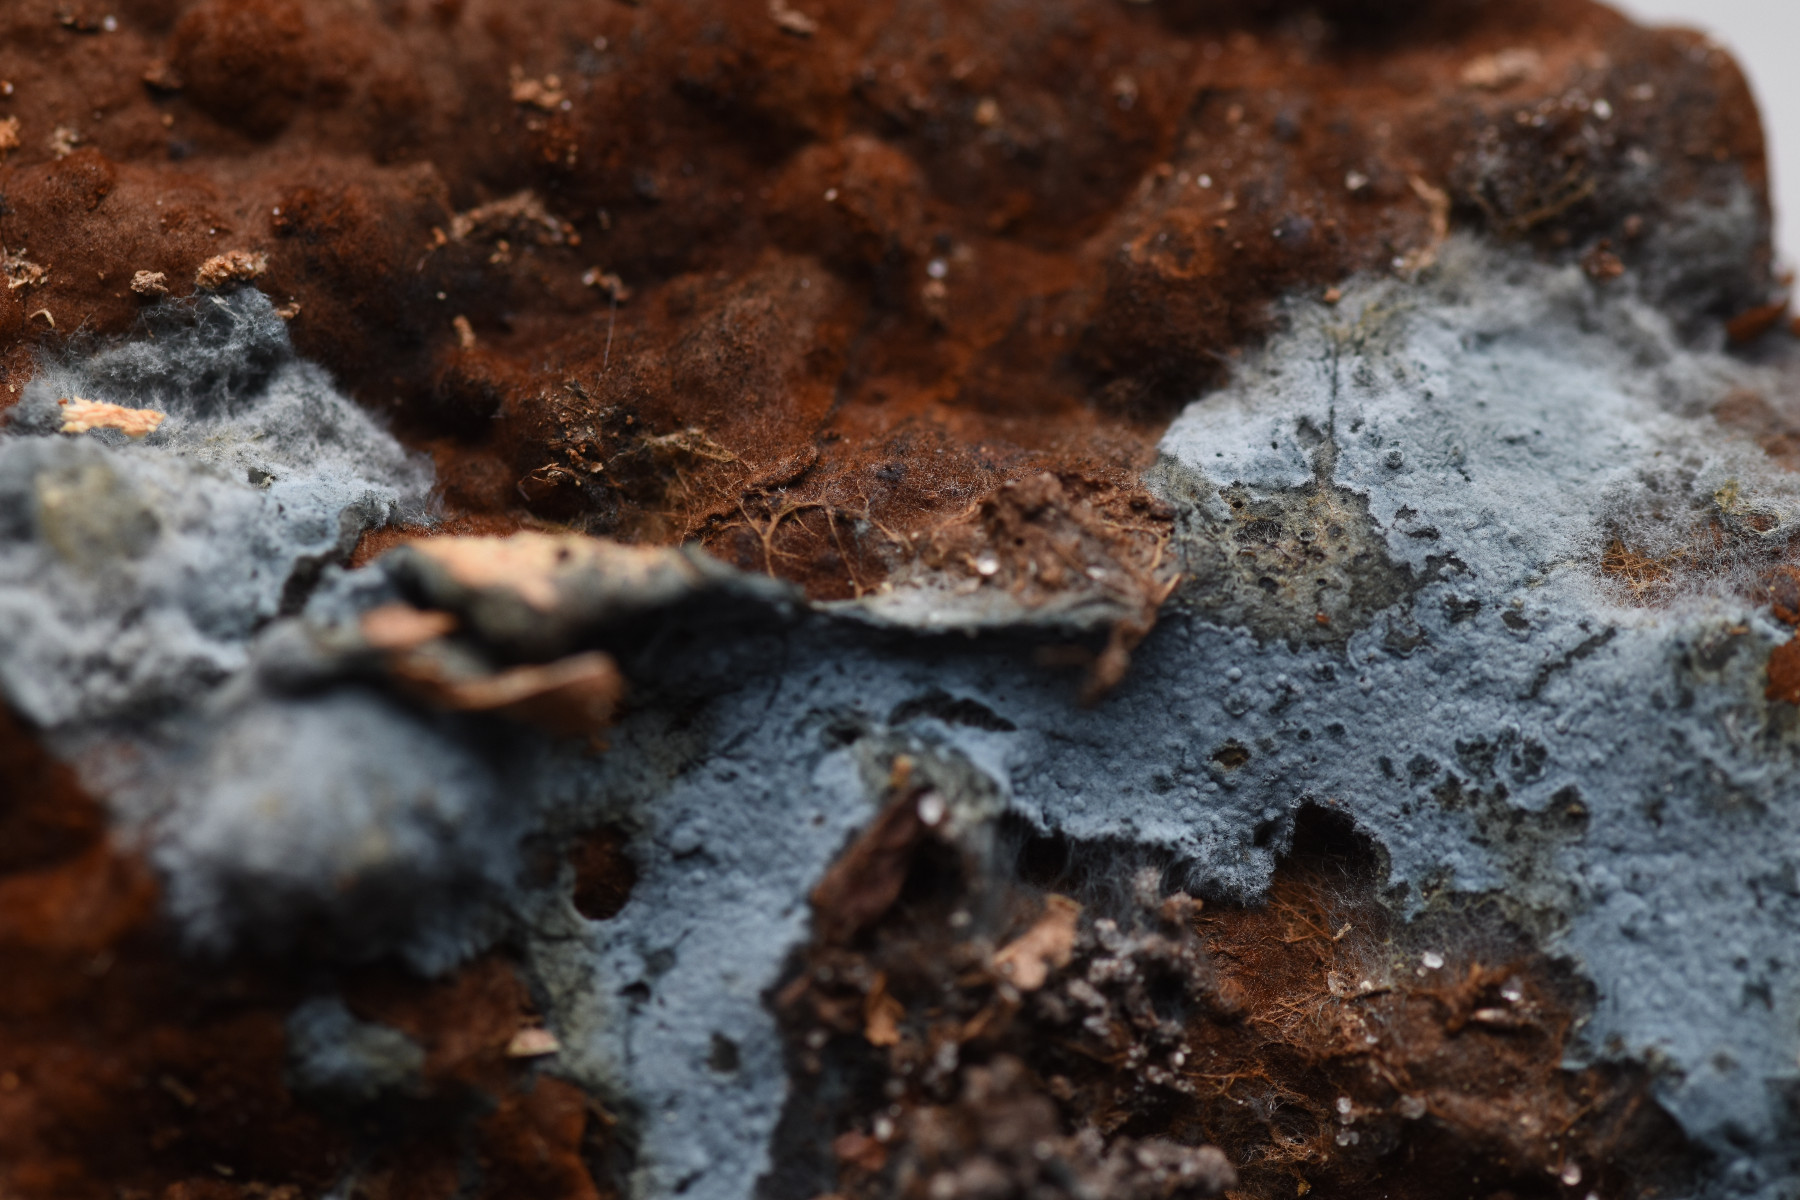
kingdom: Fungi
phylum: Basidiomycota
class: Agaricomycetes
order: Atheliales
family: Atheliaceae
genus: Byssocorticium
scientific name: Byssocorticium atrovirens
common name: blå førnehinde
